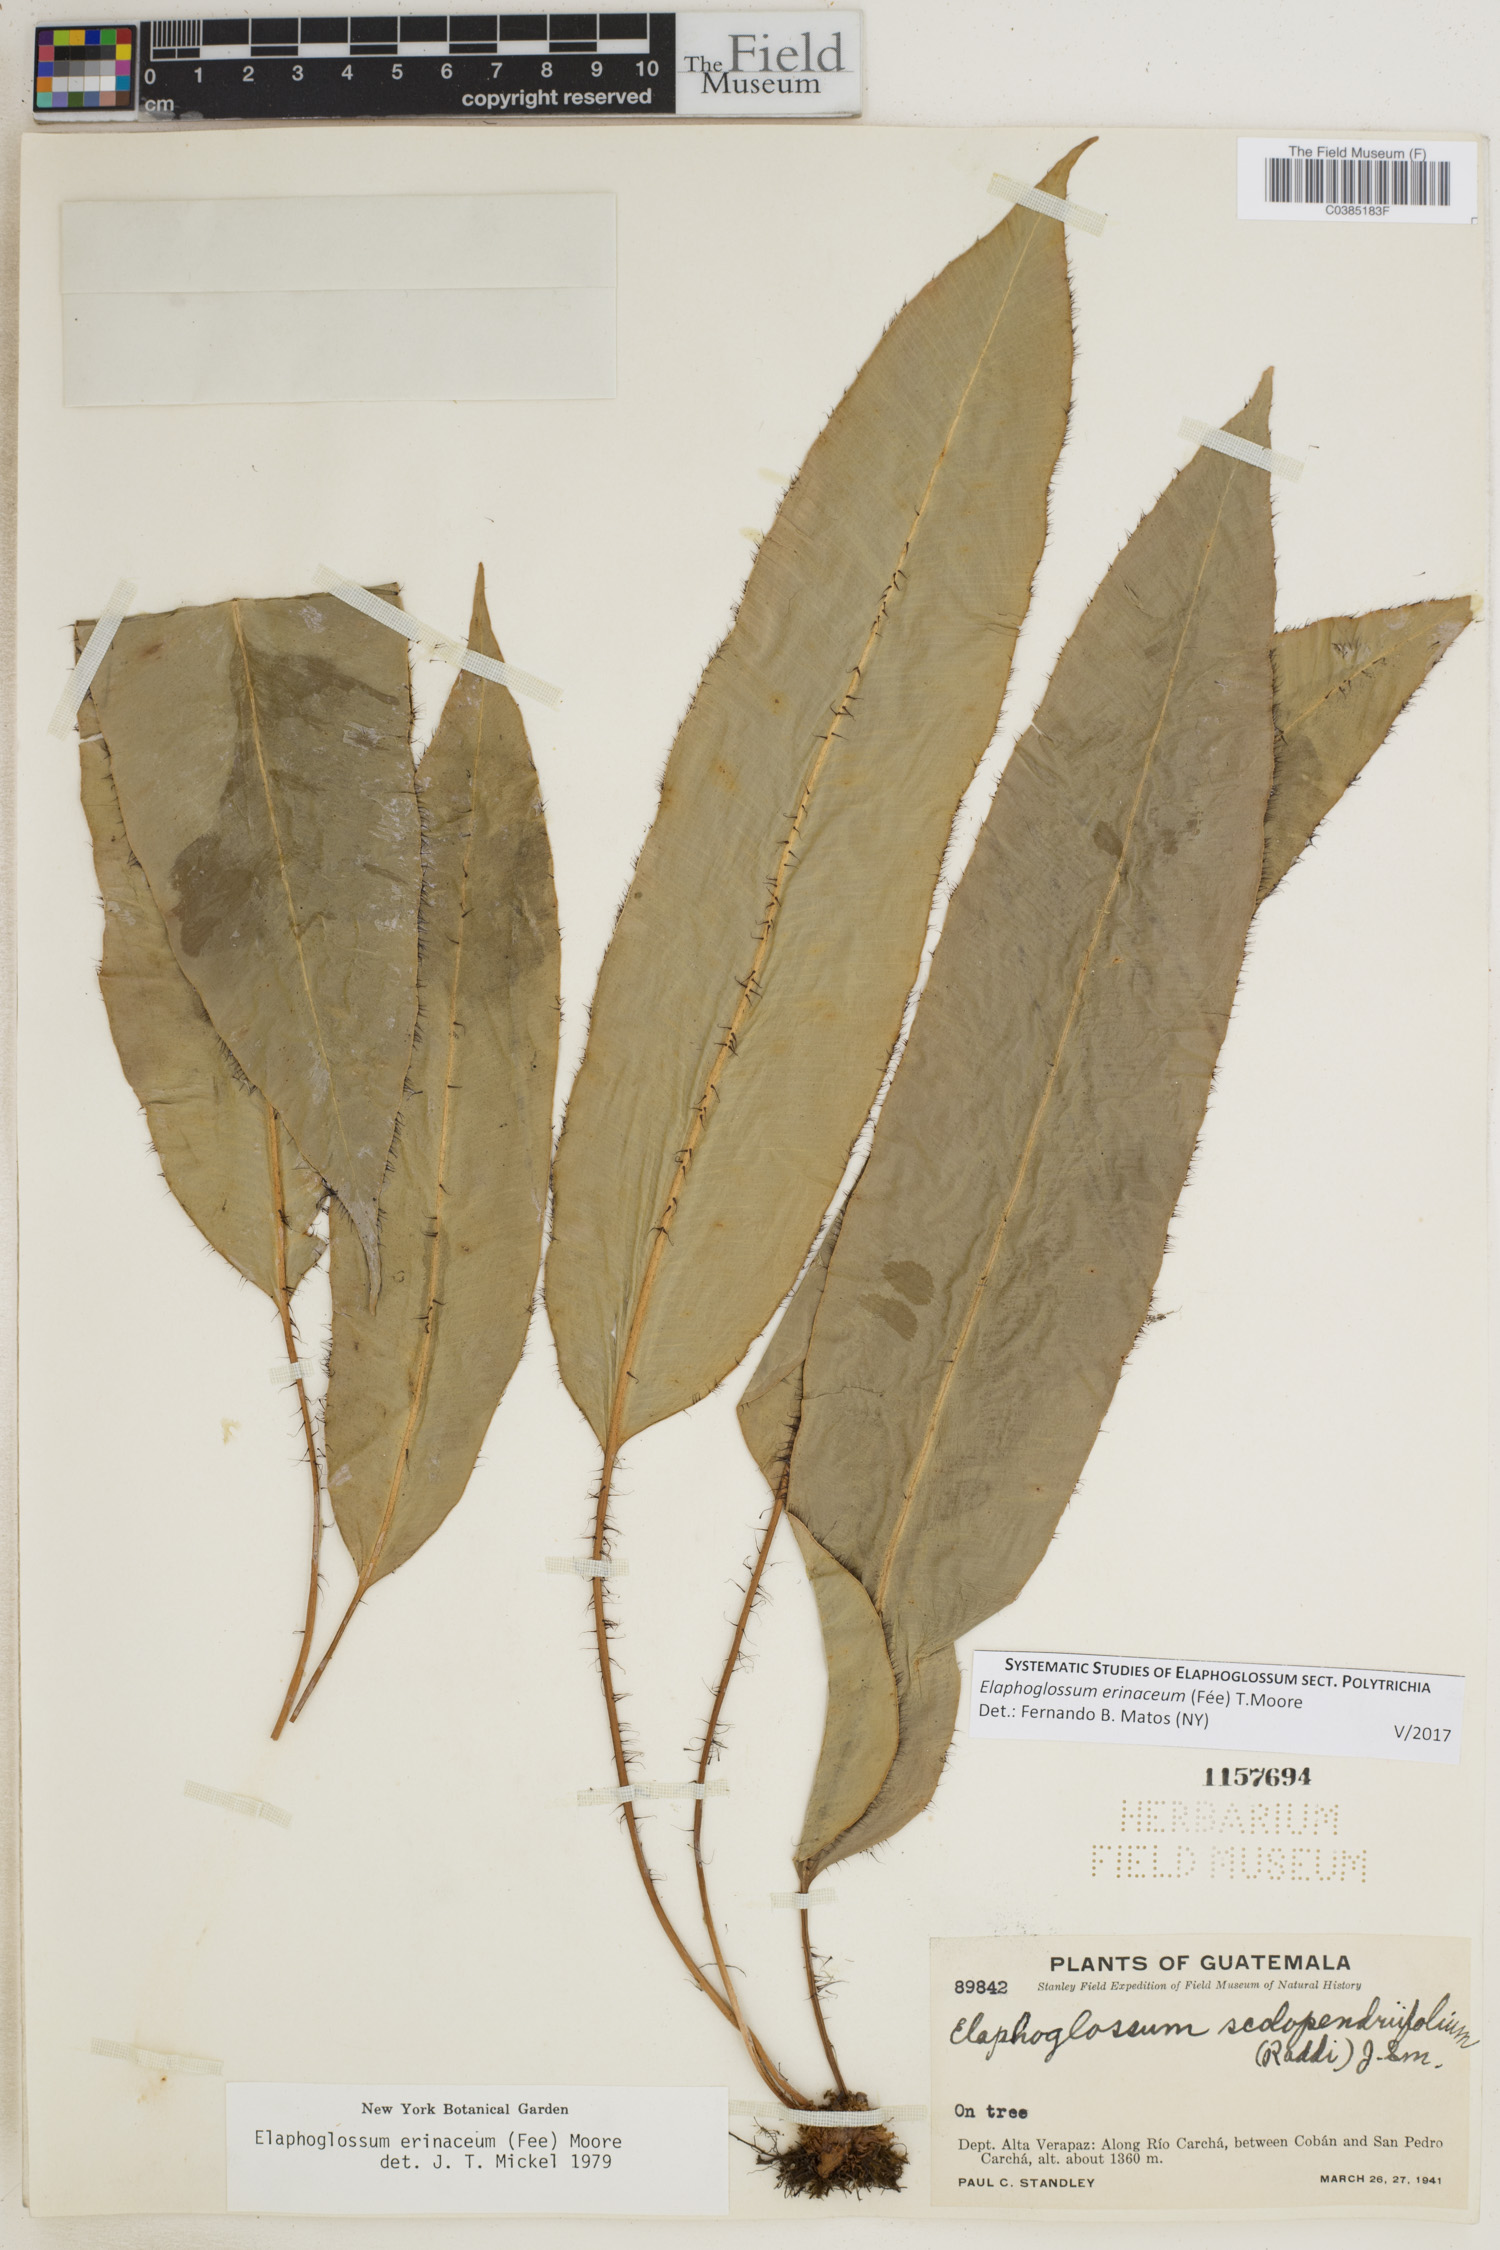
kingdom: Plantae
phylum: Tracheophyta
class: Polypodiopsida
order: Polypodiales
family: Dryopteridaceae
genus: Elaphoglossum
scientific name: Elaphoglossum erinaceum
